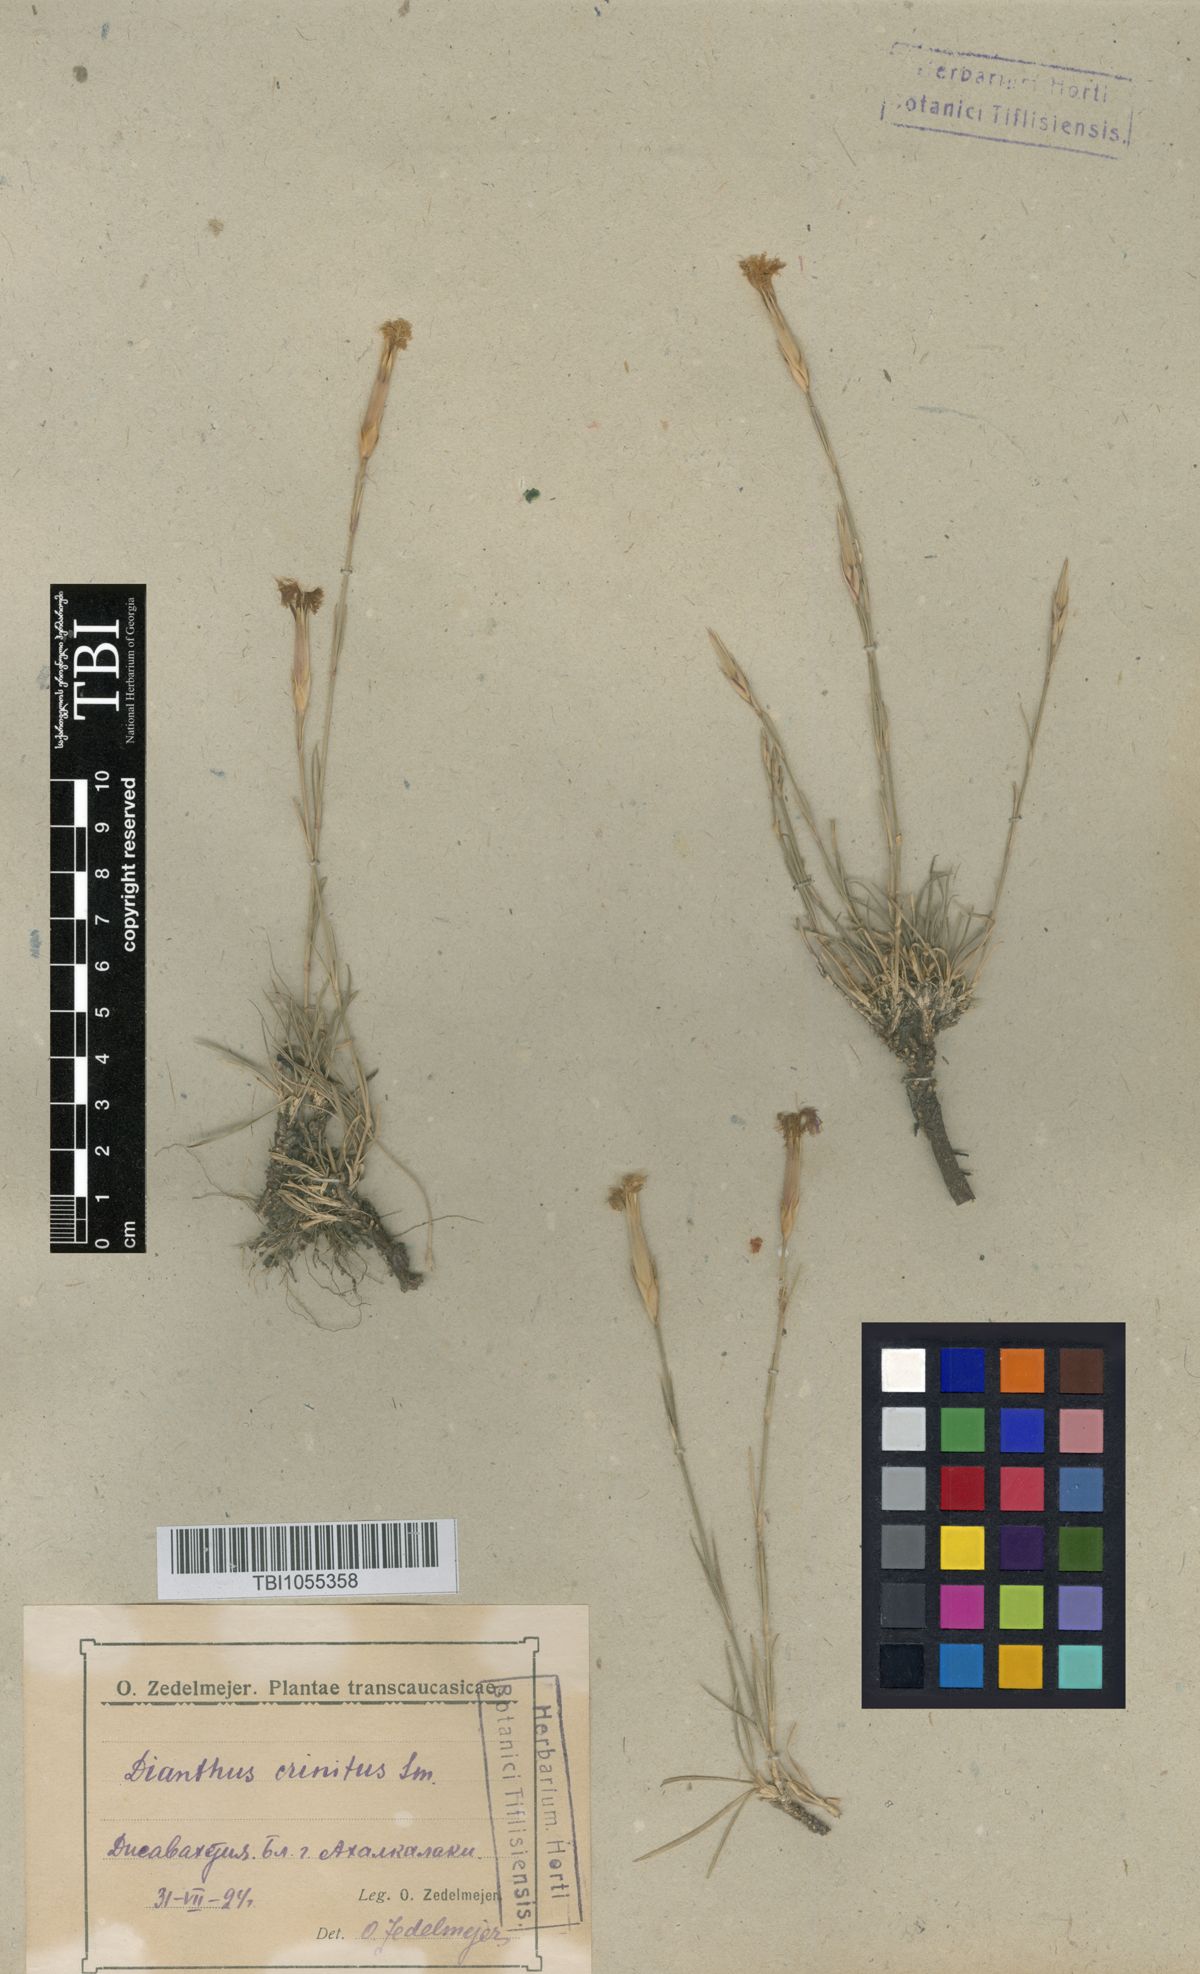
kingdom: Plantae
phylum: Tracheophyta
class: Magnoliopsida
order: Caryophyllales
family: Caryophyllaceae
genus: Dianthus
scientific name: Dianthus crinitus
